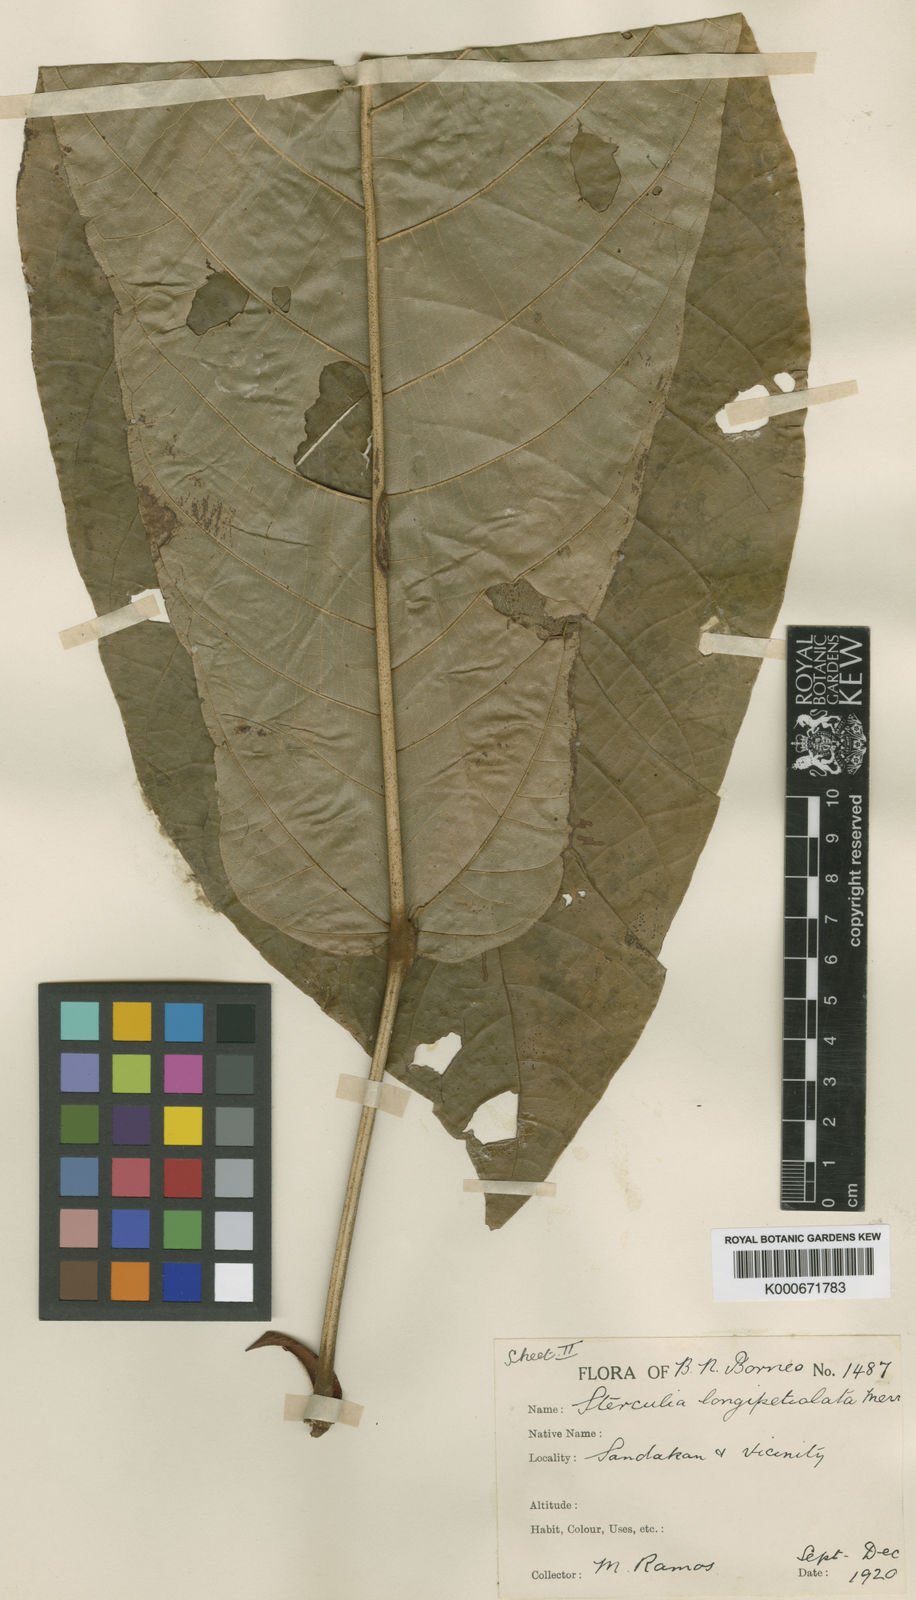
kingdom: Plantae
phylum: Tracheophyta
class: Magnoliopsida
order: Malvales
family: Malvaceae
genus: Sterculia
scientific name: Sterculia longipetiolata
